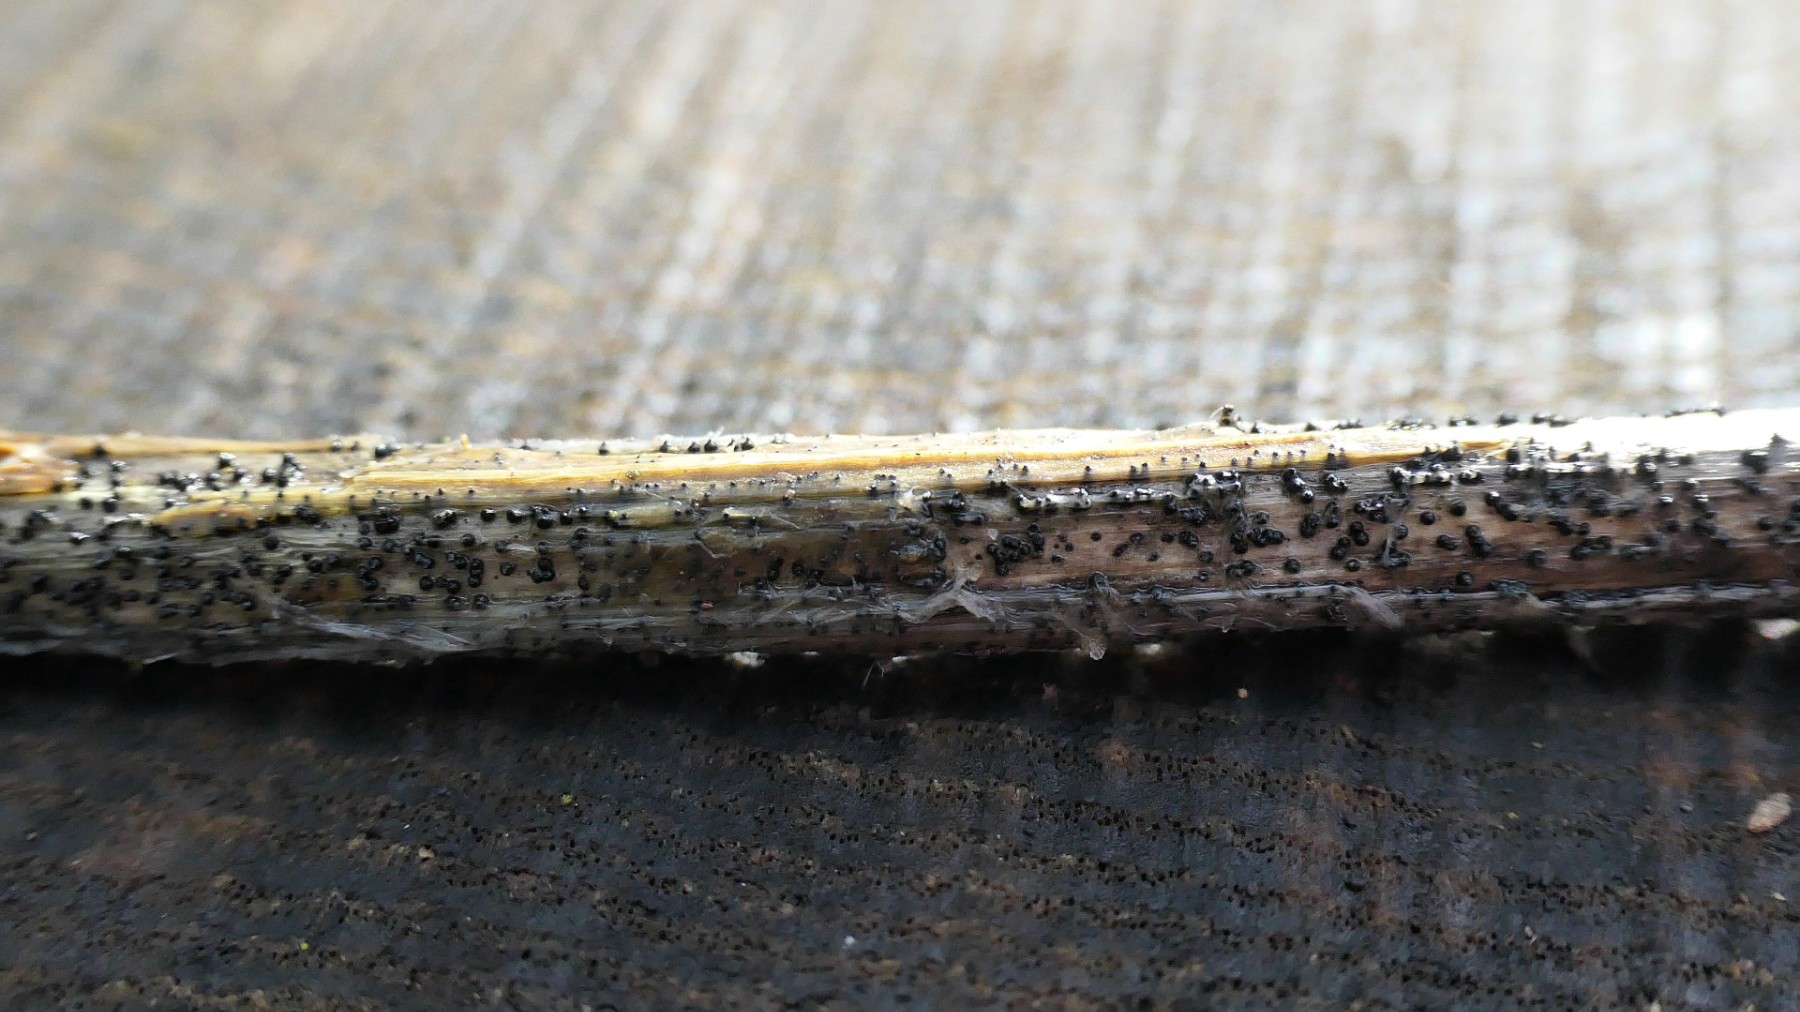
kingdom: Fungi
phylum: Ascomycota
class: Dothideomycetes
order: Pleosporales
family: Leptosphaeriaceae
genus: Leptosphaeria
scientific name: Leptosphaeria
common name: kulkegle
